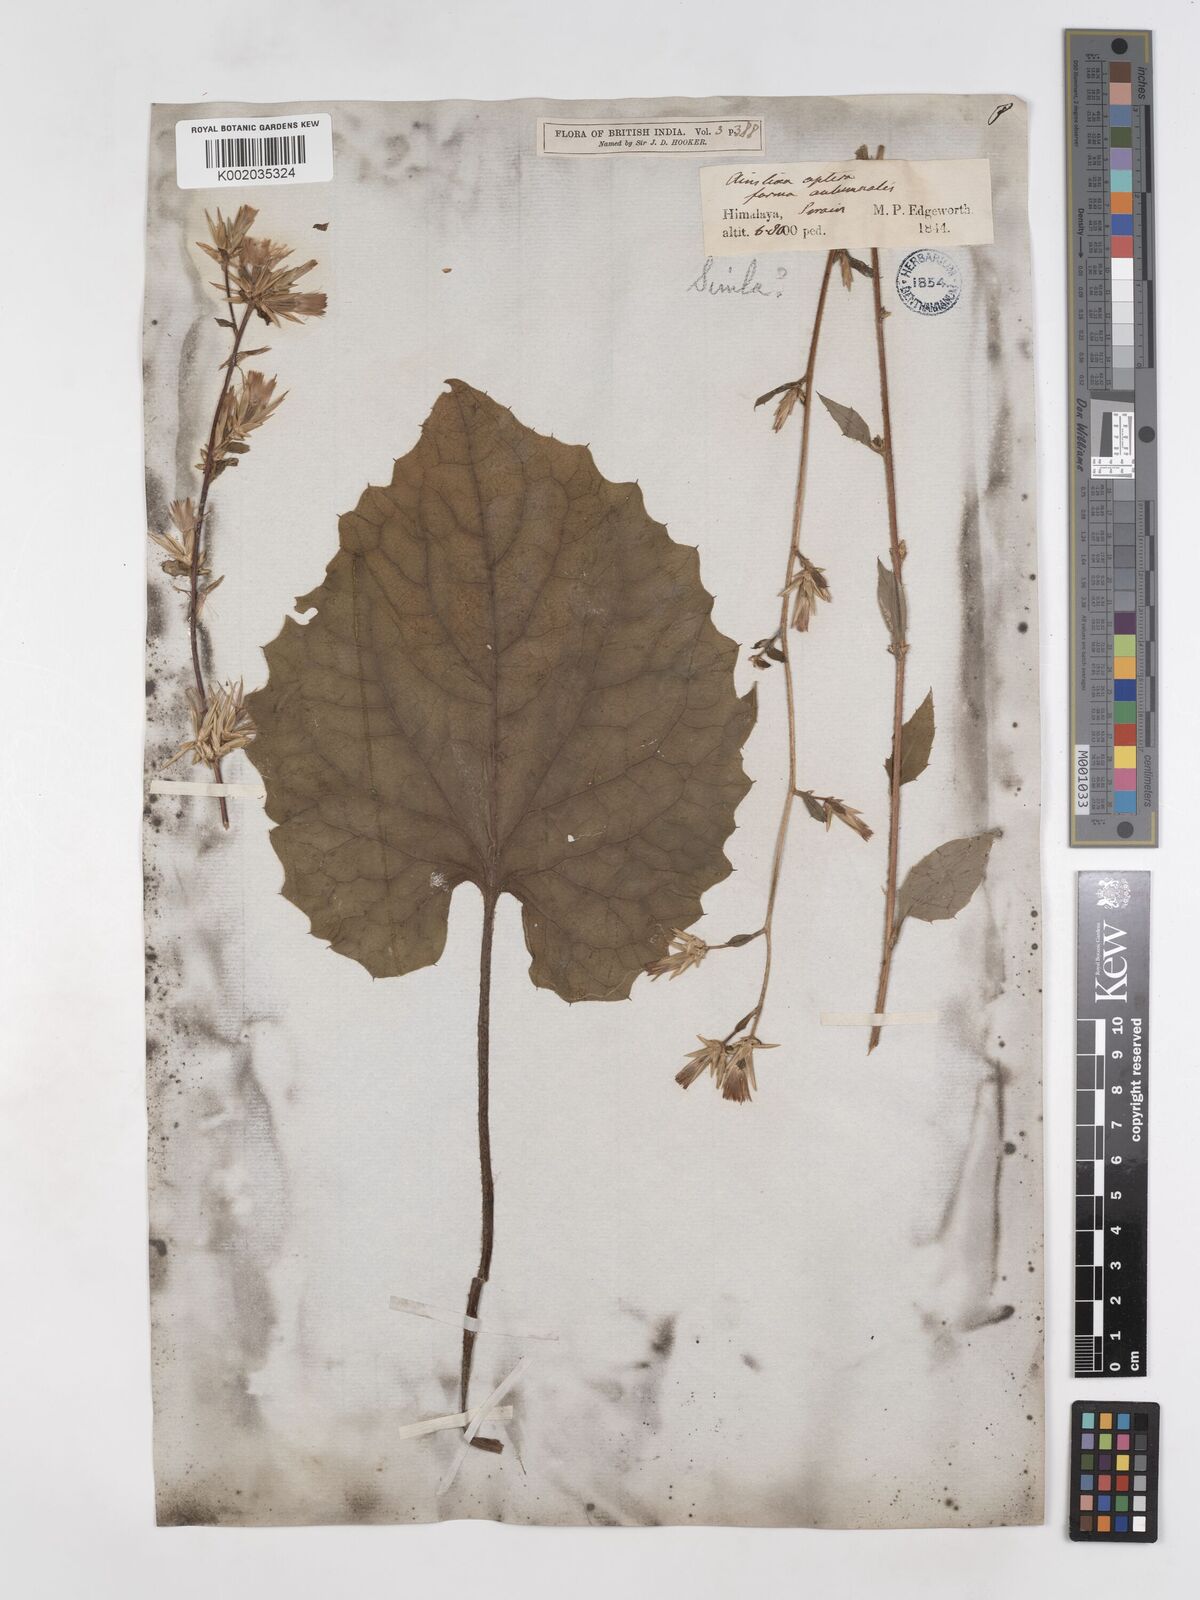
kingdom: Plantae
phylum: Tracheophyta
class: Magnoliopsida
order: Asterales
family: Asteraceae
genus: Ainsliaea
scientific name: Ainsliaea aptera
